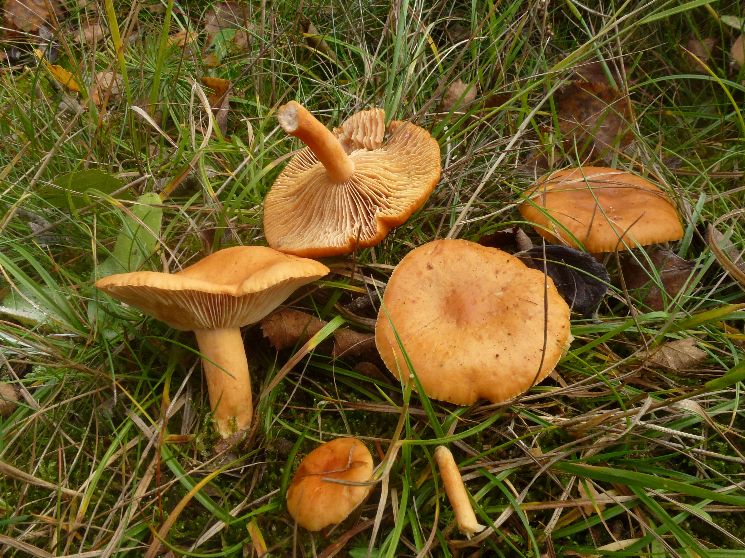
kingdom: Fungi
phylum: Basidiomycota
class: Agaricomycetes
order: Russulales
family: Russulaceae
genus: Lactarius
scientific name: Lactarius aurantiacus
